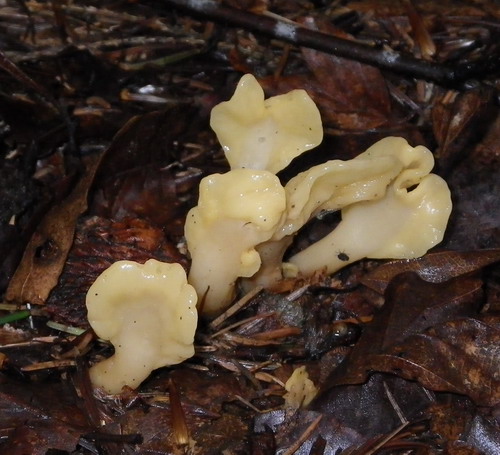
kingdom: Fungi
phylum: Ascomycota
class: Leotiomycetes
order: Rhytismatales
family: Cudoniaceae
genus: Spathularia
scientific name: Spathularia flavida
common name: gul spatelsvamp
